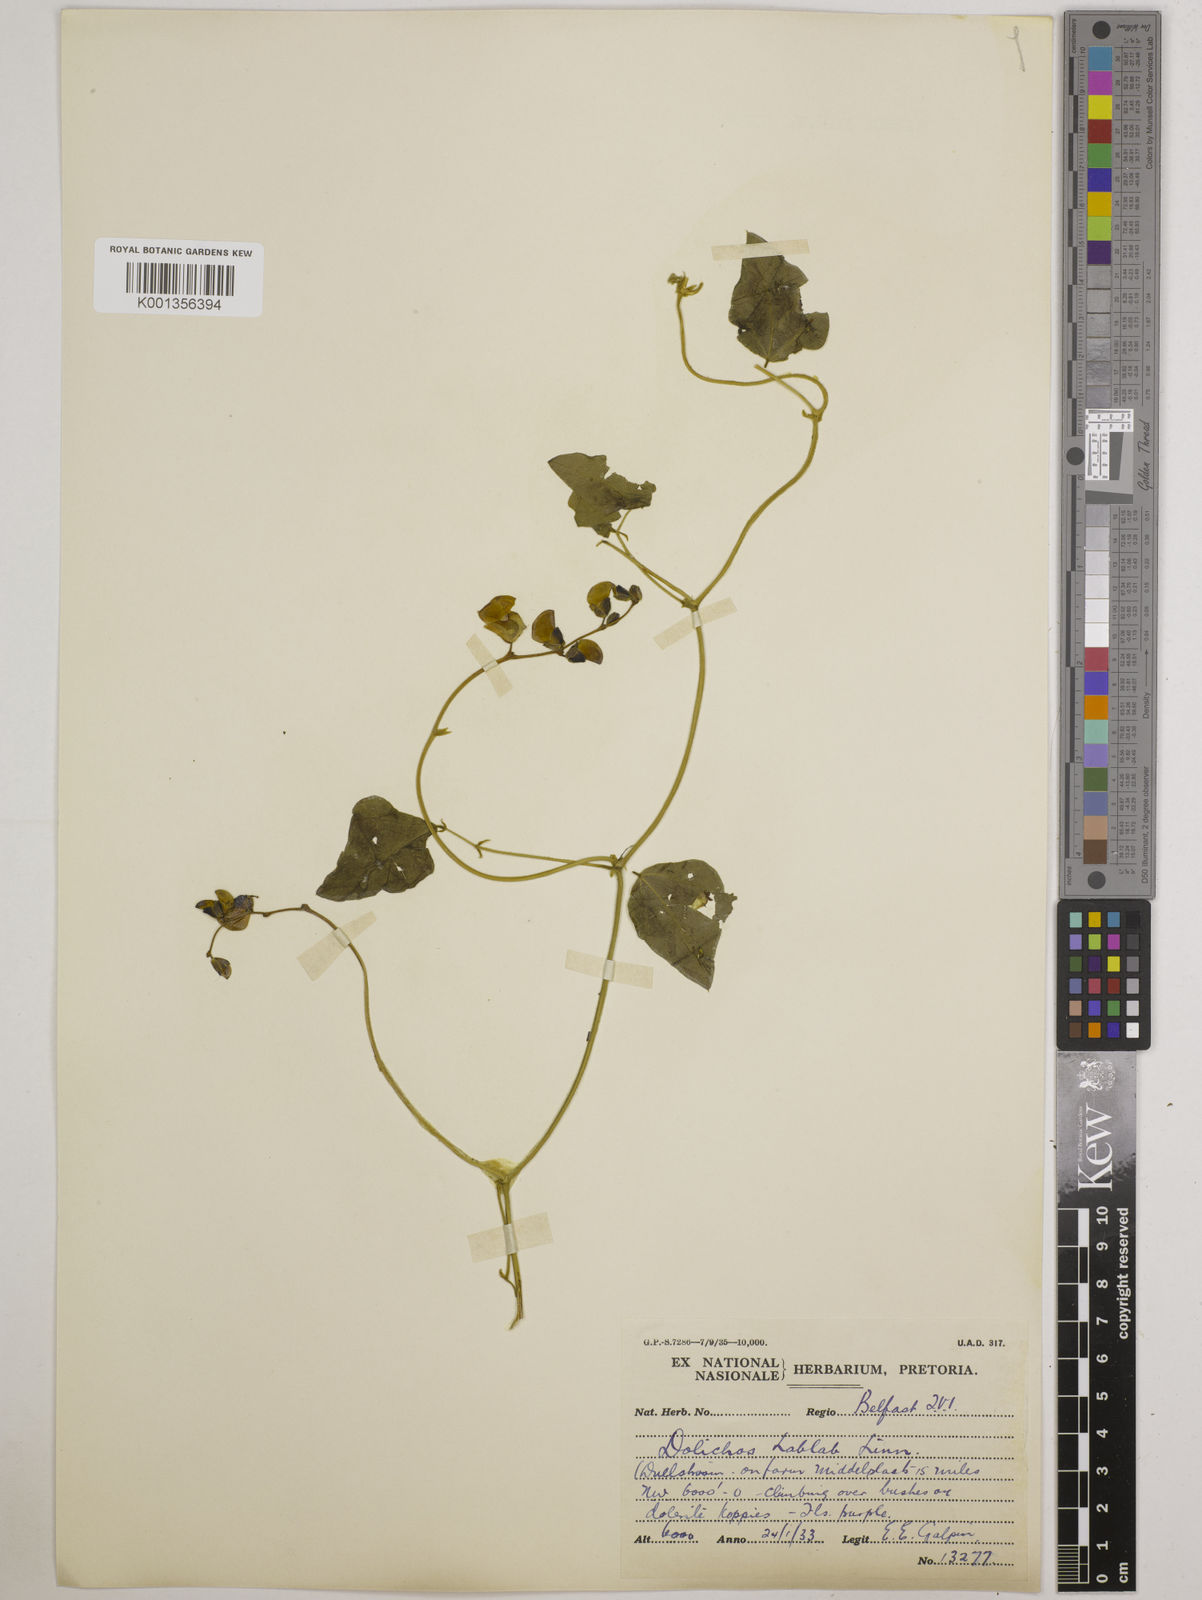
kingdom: Plantae
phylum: Tracheophyta
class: Magnoliopsida
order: Fabales
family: Fabaceae
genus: Lablab
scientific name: Lablab purpureus
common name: Lablab-bean
